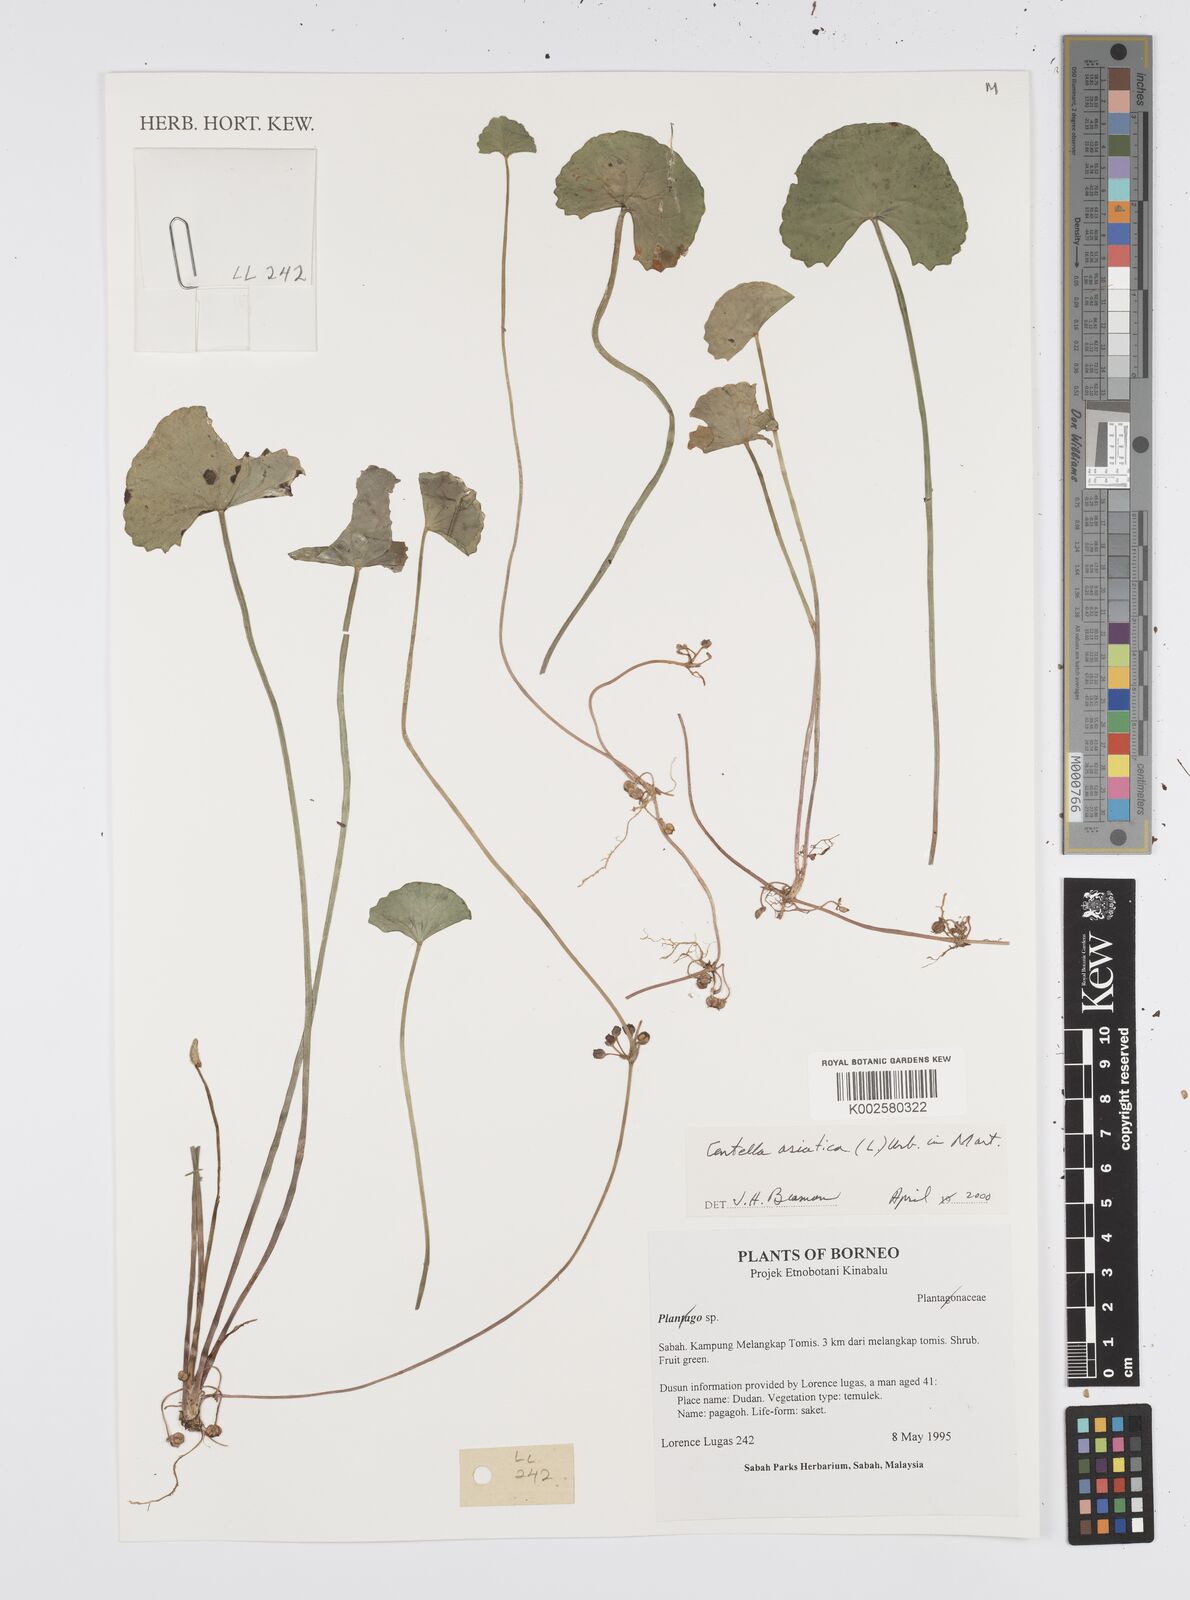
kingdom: Plantae
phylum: Tracheophyta
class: Magnoliopsida
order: Apiales
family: Apiaceae
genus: Centella
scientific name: Centella asiatica
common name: Spadeleaf
